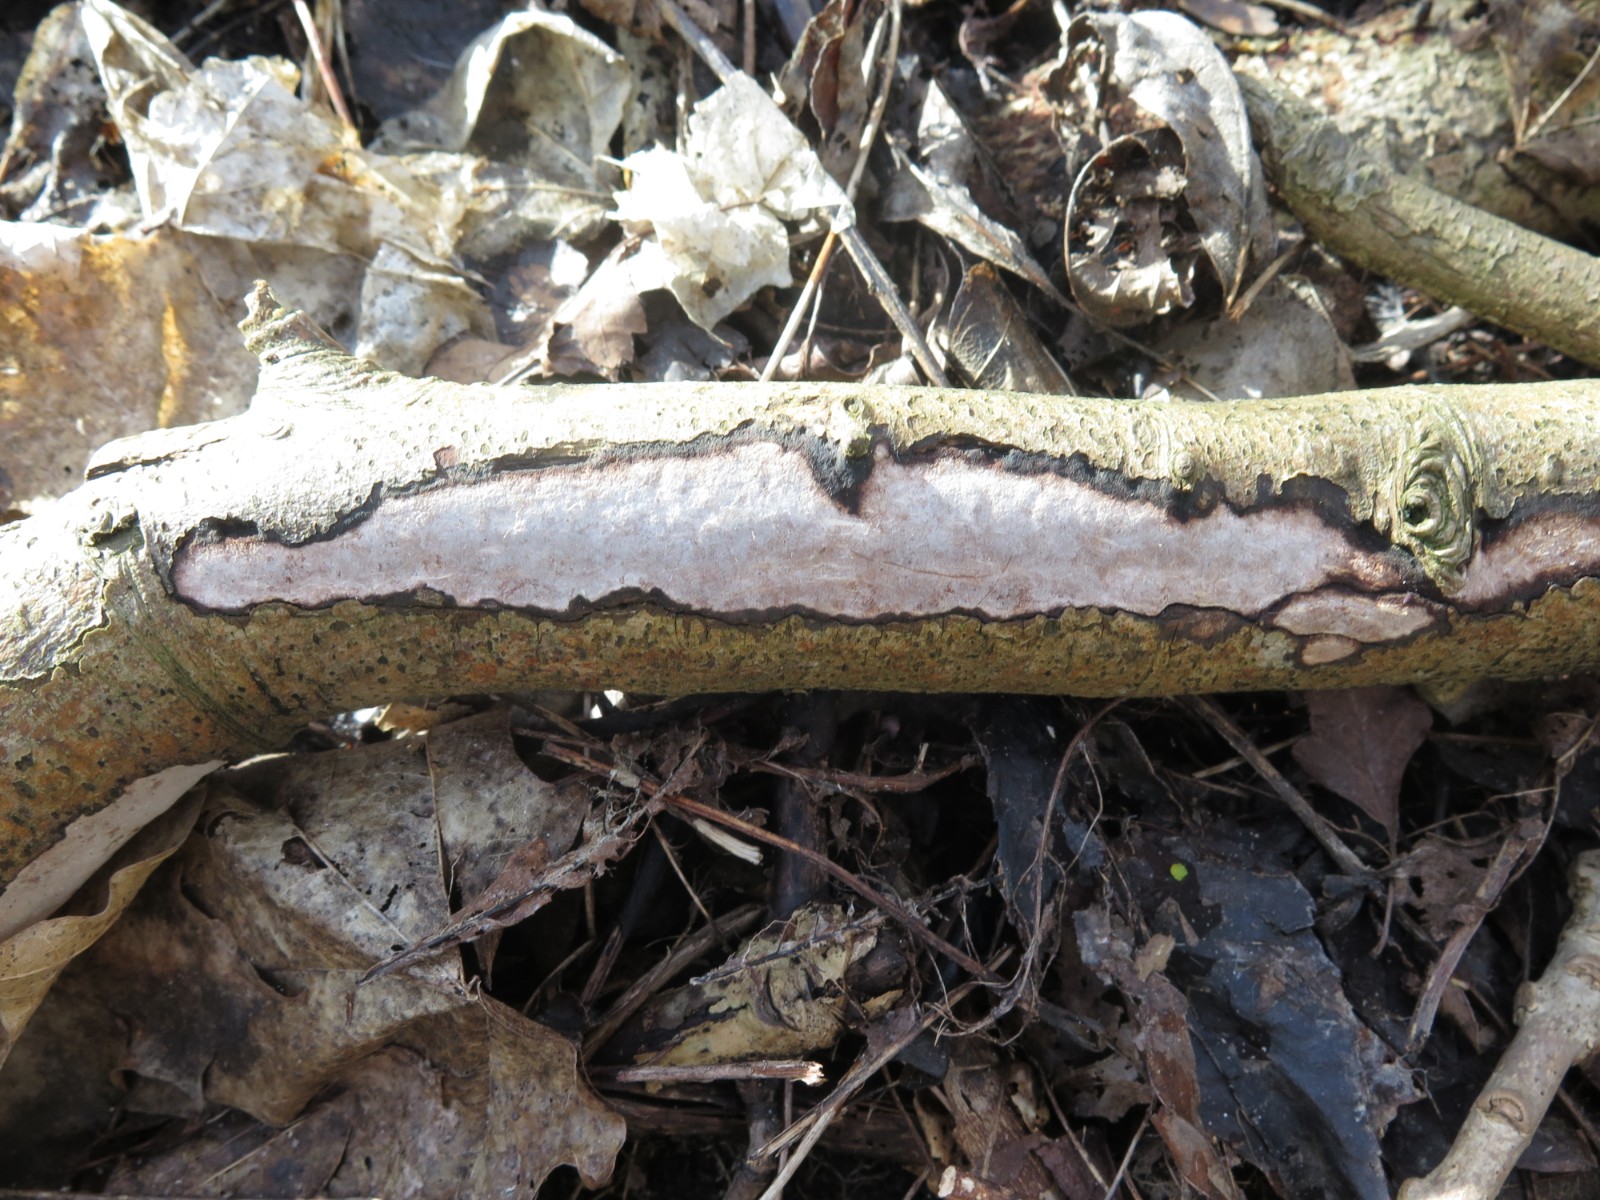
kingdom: Fungi
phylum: Basidiomycota
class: Agaricomycetes
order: Corticiales
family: Vuilleminiaceae
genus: Vuilleminia
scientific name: Vuilleminia cystidiata
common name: tjørne-barksprænger
